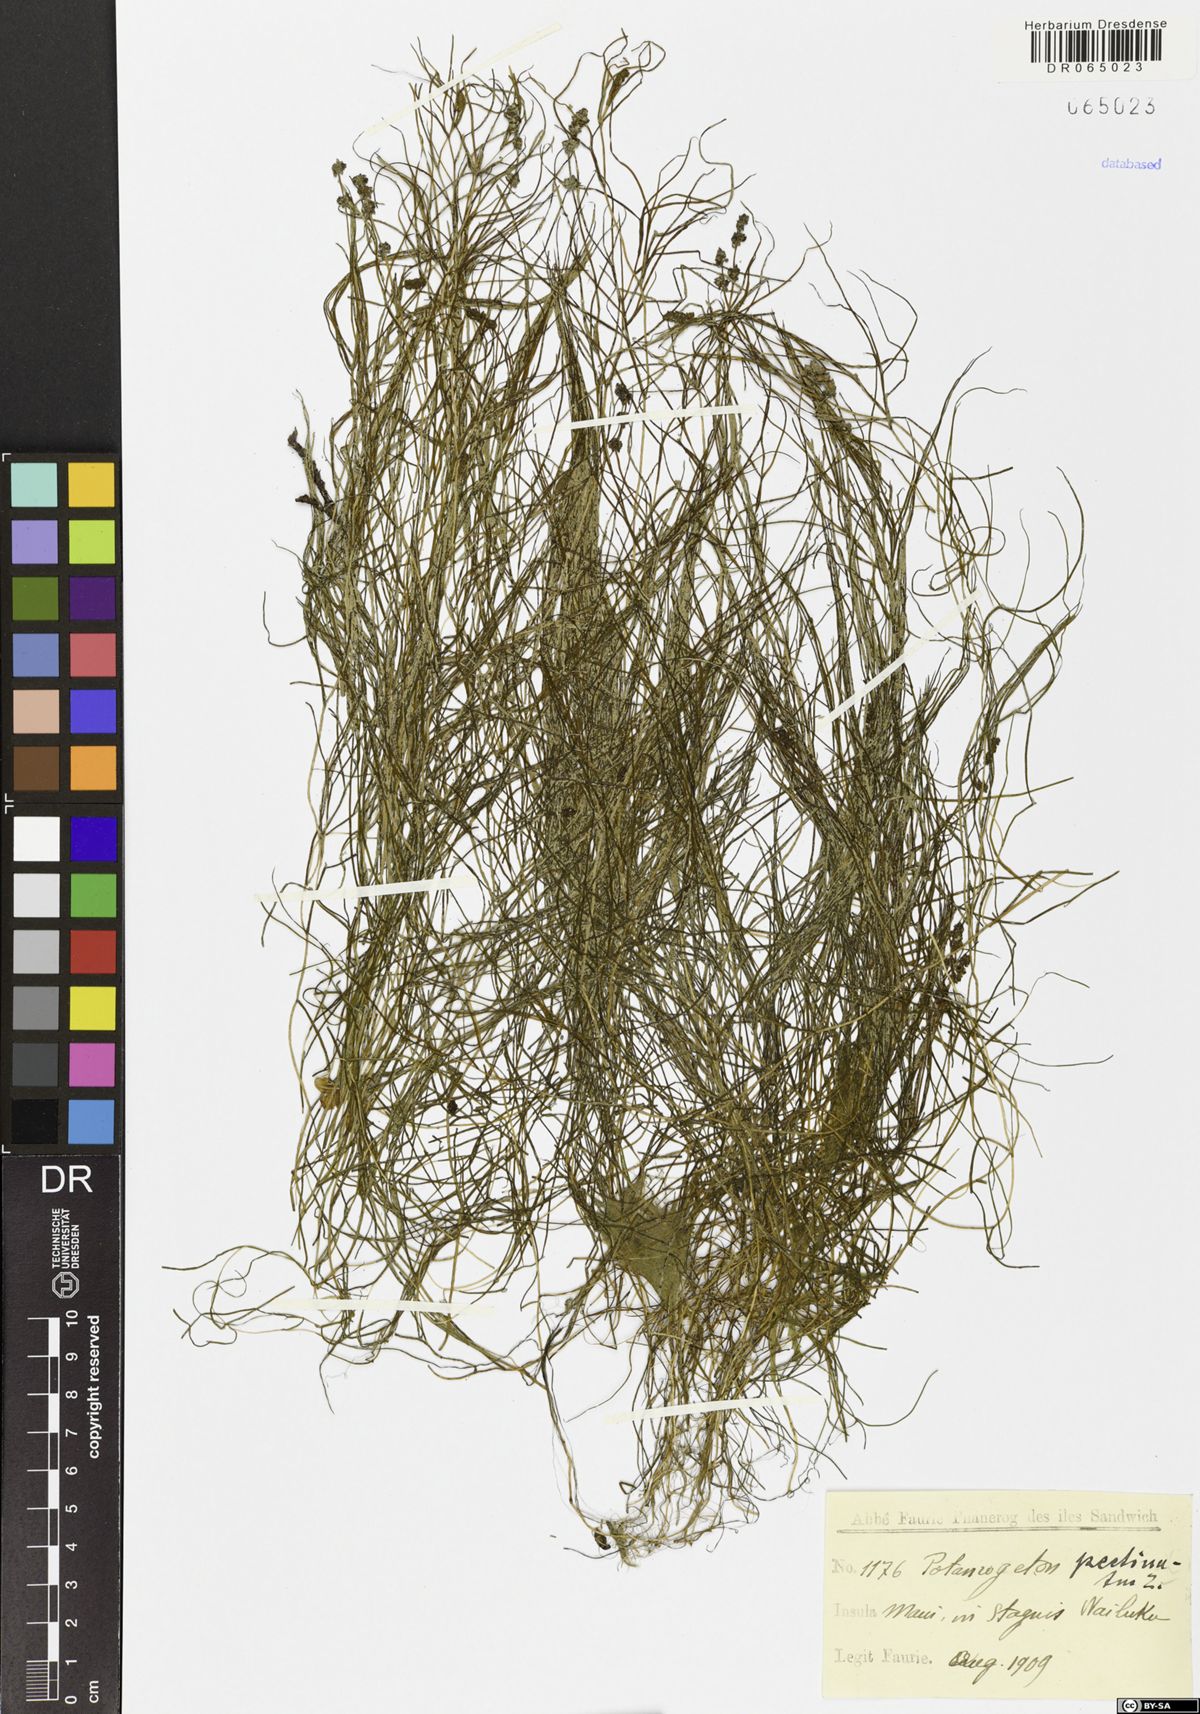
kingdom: Plantae
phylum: Tracheophyta
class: Liliopsida
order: Alismatales
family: Potamogetonaceae
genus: Stuckenia
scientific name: Stuckenia pectinata
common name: Sago pondweed
